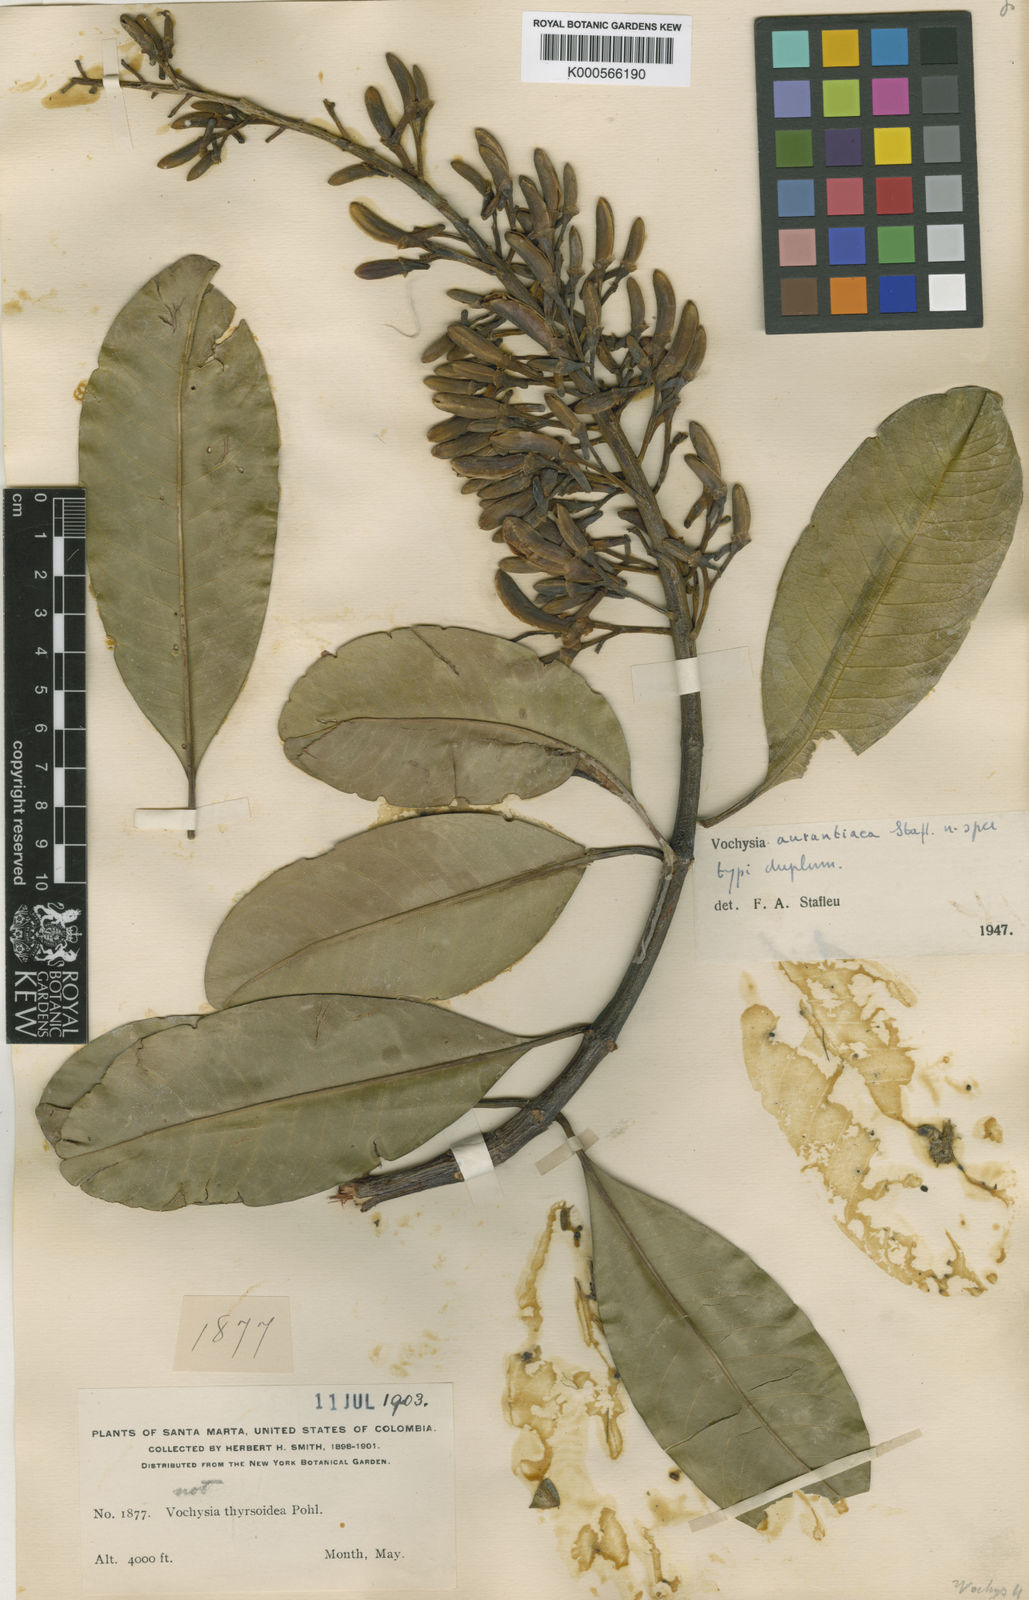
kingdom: Plantae
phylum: Tracheophyta
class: Magnoliopsida
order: Myrtales
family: Vochysiaceae
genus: Vochysia
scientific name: Vochysia aurantiaca
